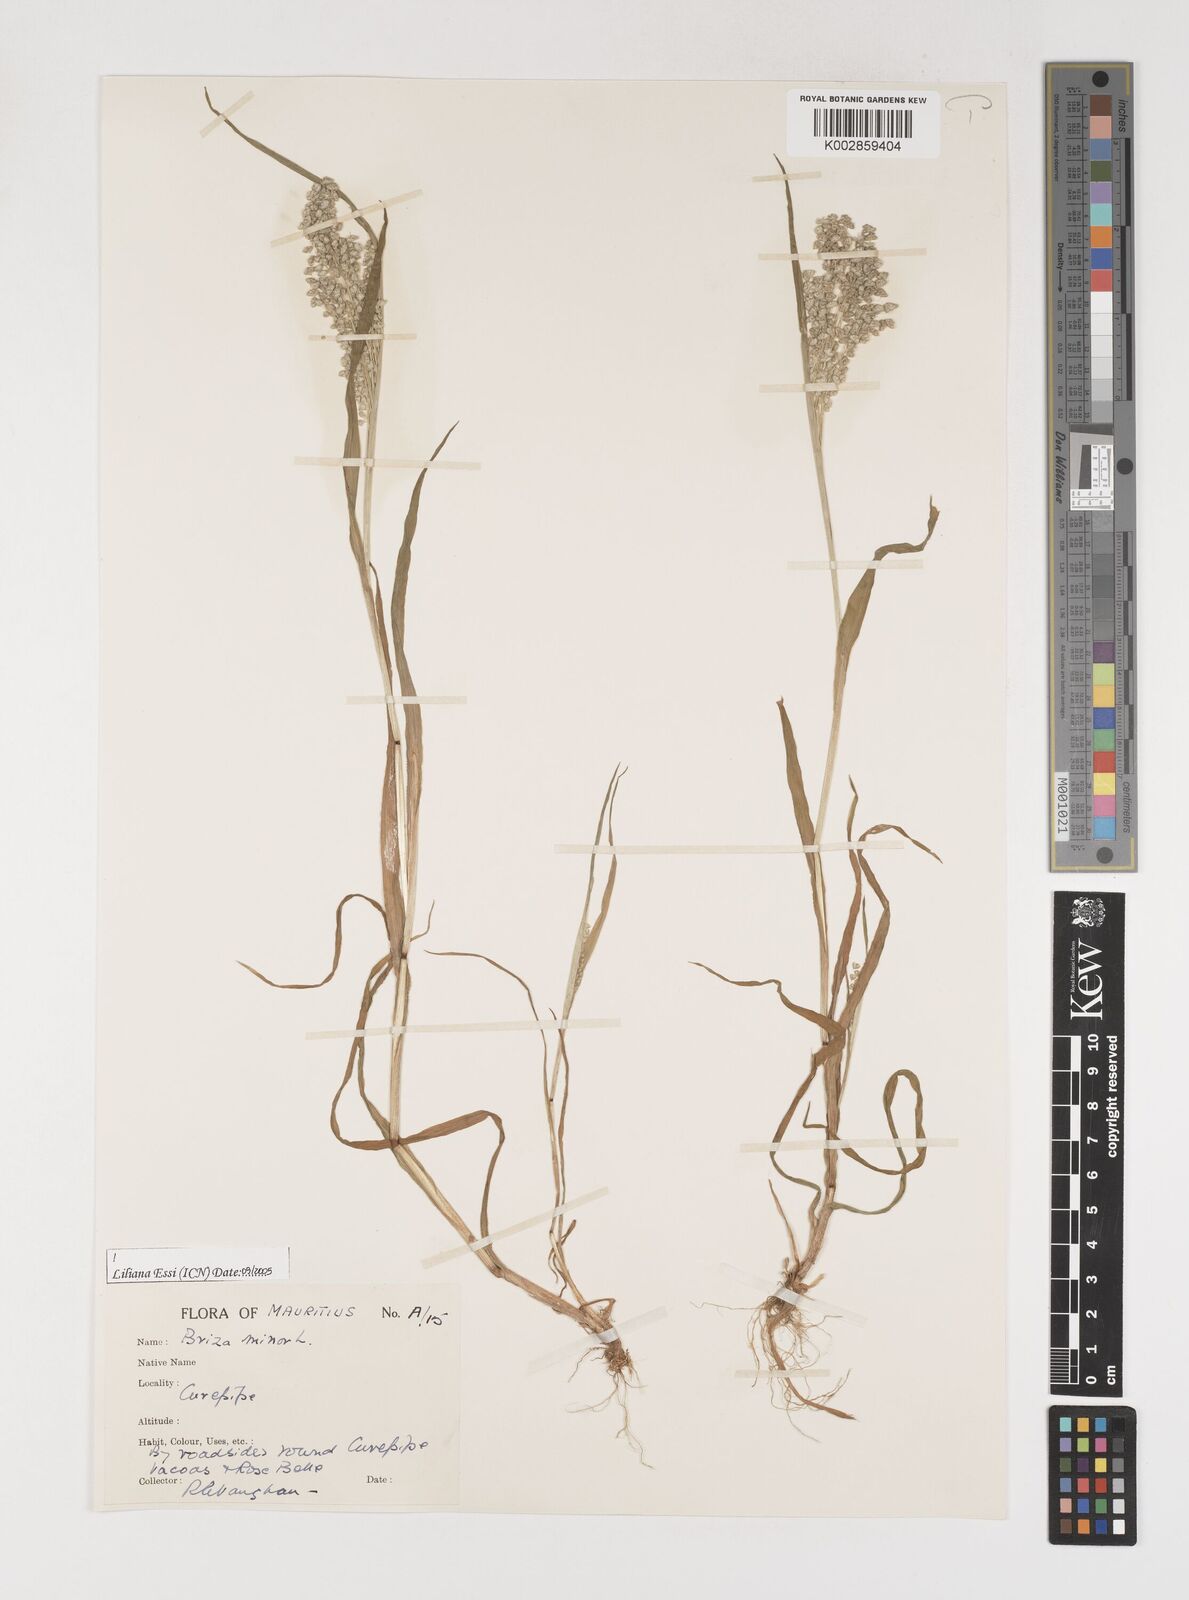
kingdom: Plantae
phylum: Tracheophyta
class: Liliopsida
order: Poales
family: Poaceae
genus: Briza
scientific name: Briza minor
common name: Lesser quaking-grass
